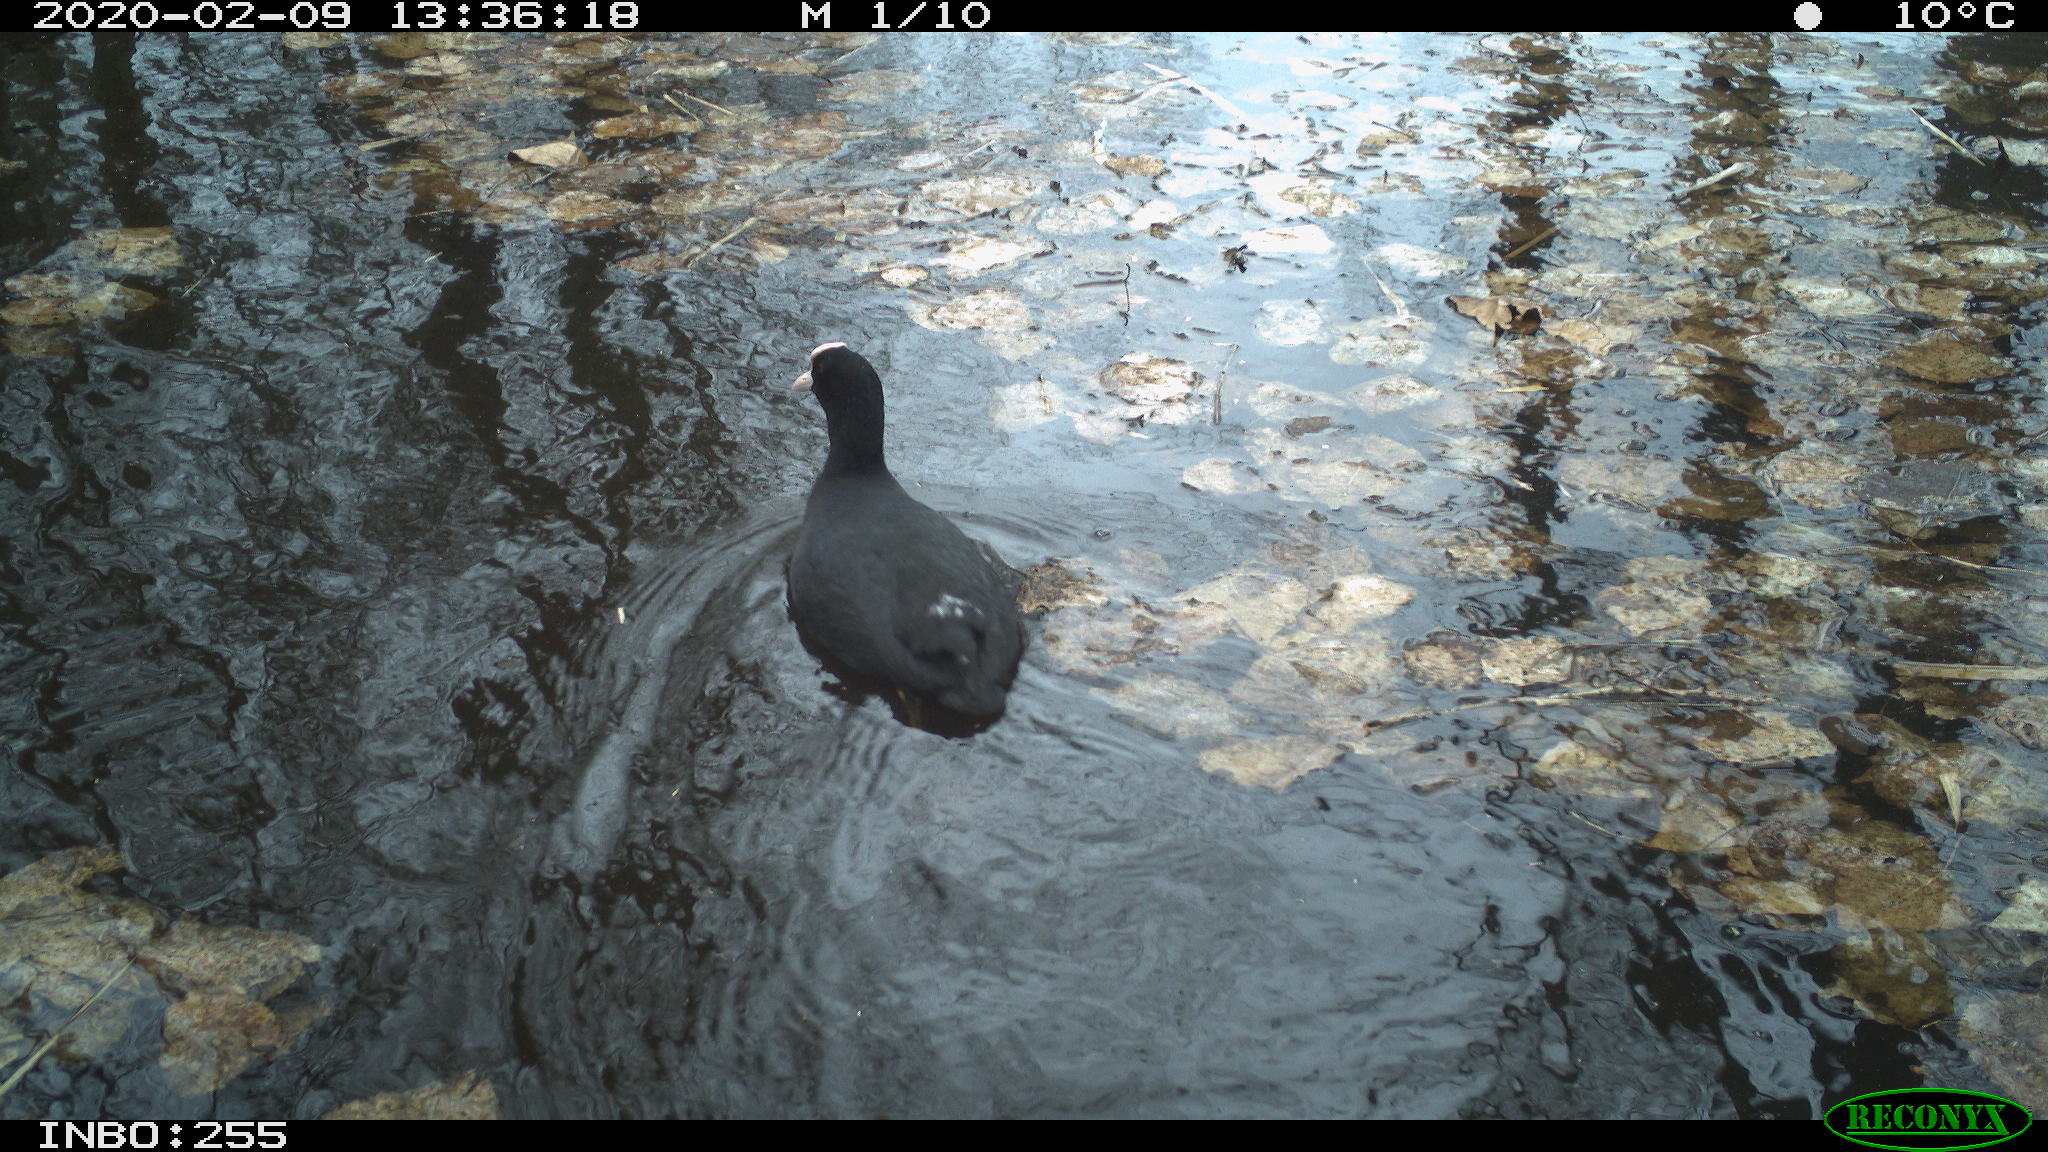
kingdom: Animalia
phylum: Chordata
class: Aves
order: Gruiformes
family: Rallidae
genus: Fulica
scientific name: Fulica atra
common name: Eurasian coot
